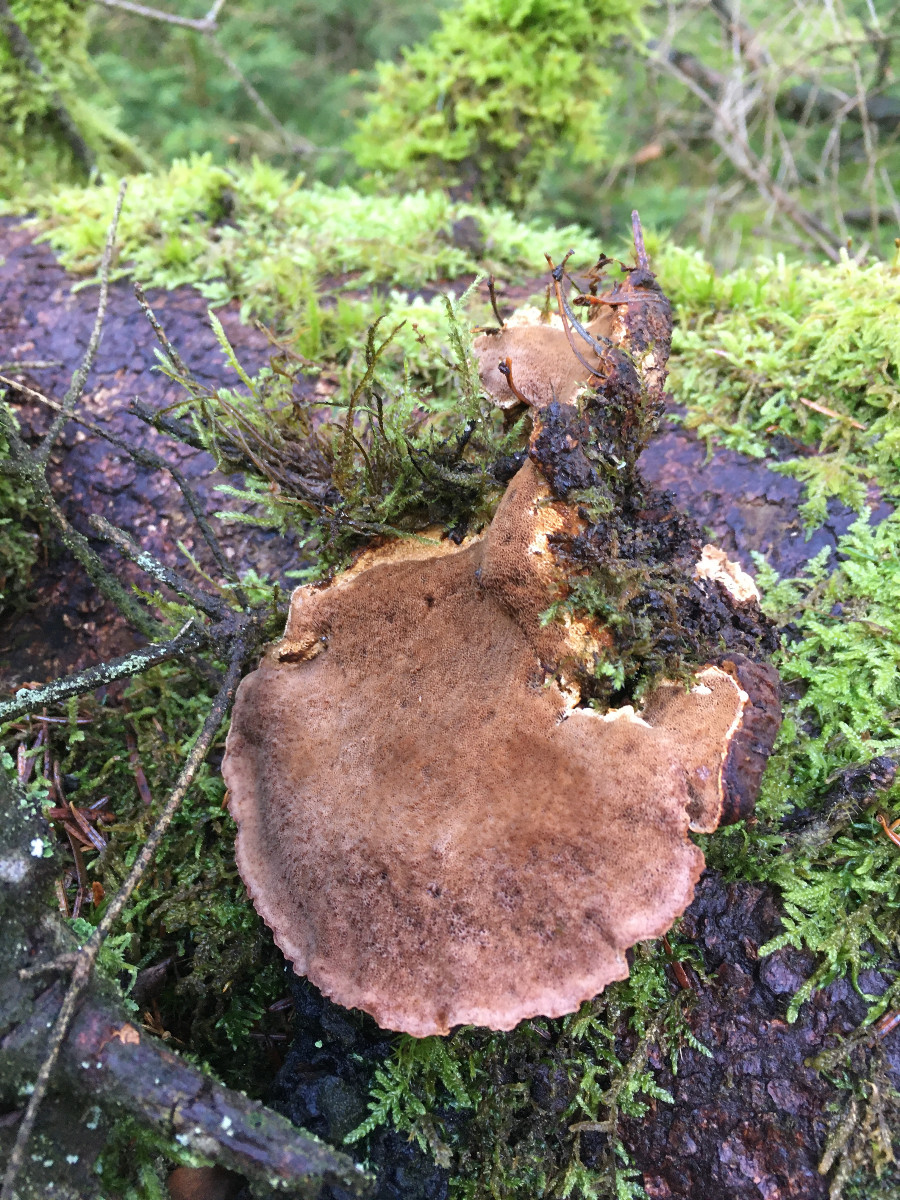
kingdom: Fungi
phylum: Basidiomycota
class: Agaricomycetes
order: Polyporales
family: Ischnodermataceae
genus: Ischnoderma
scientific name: Ischnoderma benzoinum
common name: gran-tjæreporesvamp
